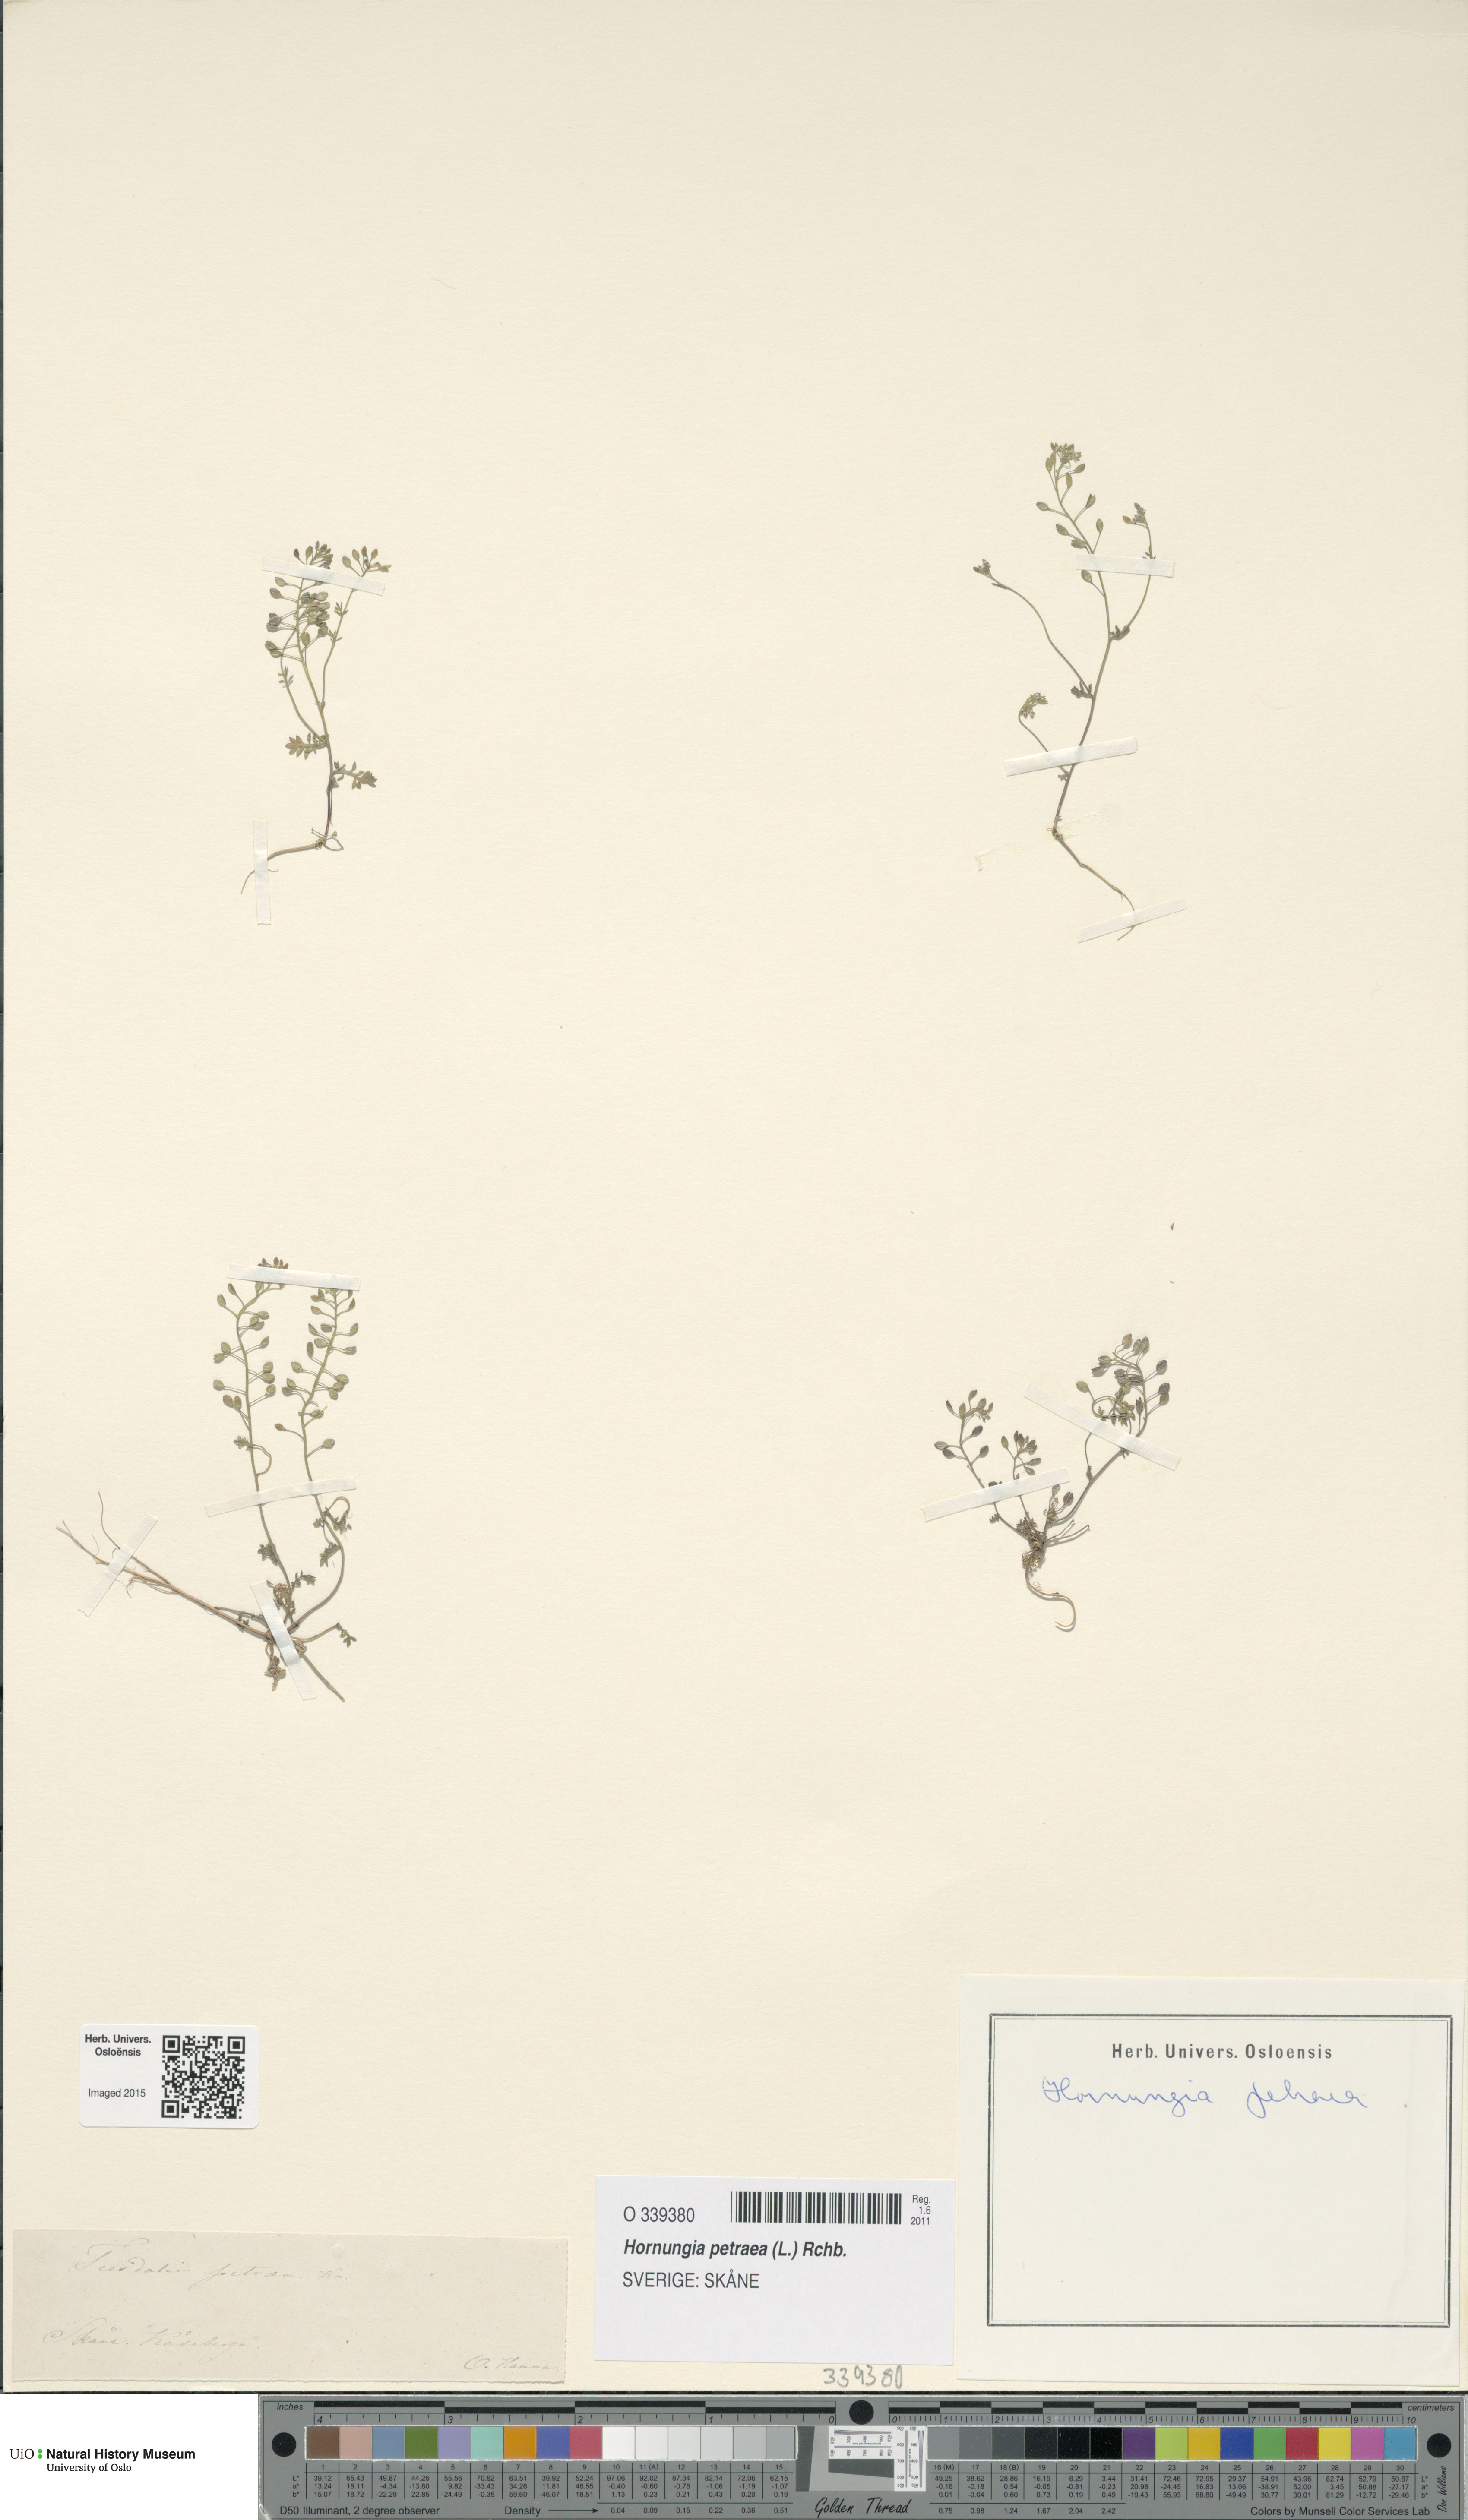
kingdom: Plantae
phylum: Tracheophyta
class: Magnoliopsida
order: Brassicales
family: Brassicaceae
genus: Hornungia
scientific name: Hornungia petraea
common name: Hutchinsia
